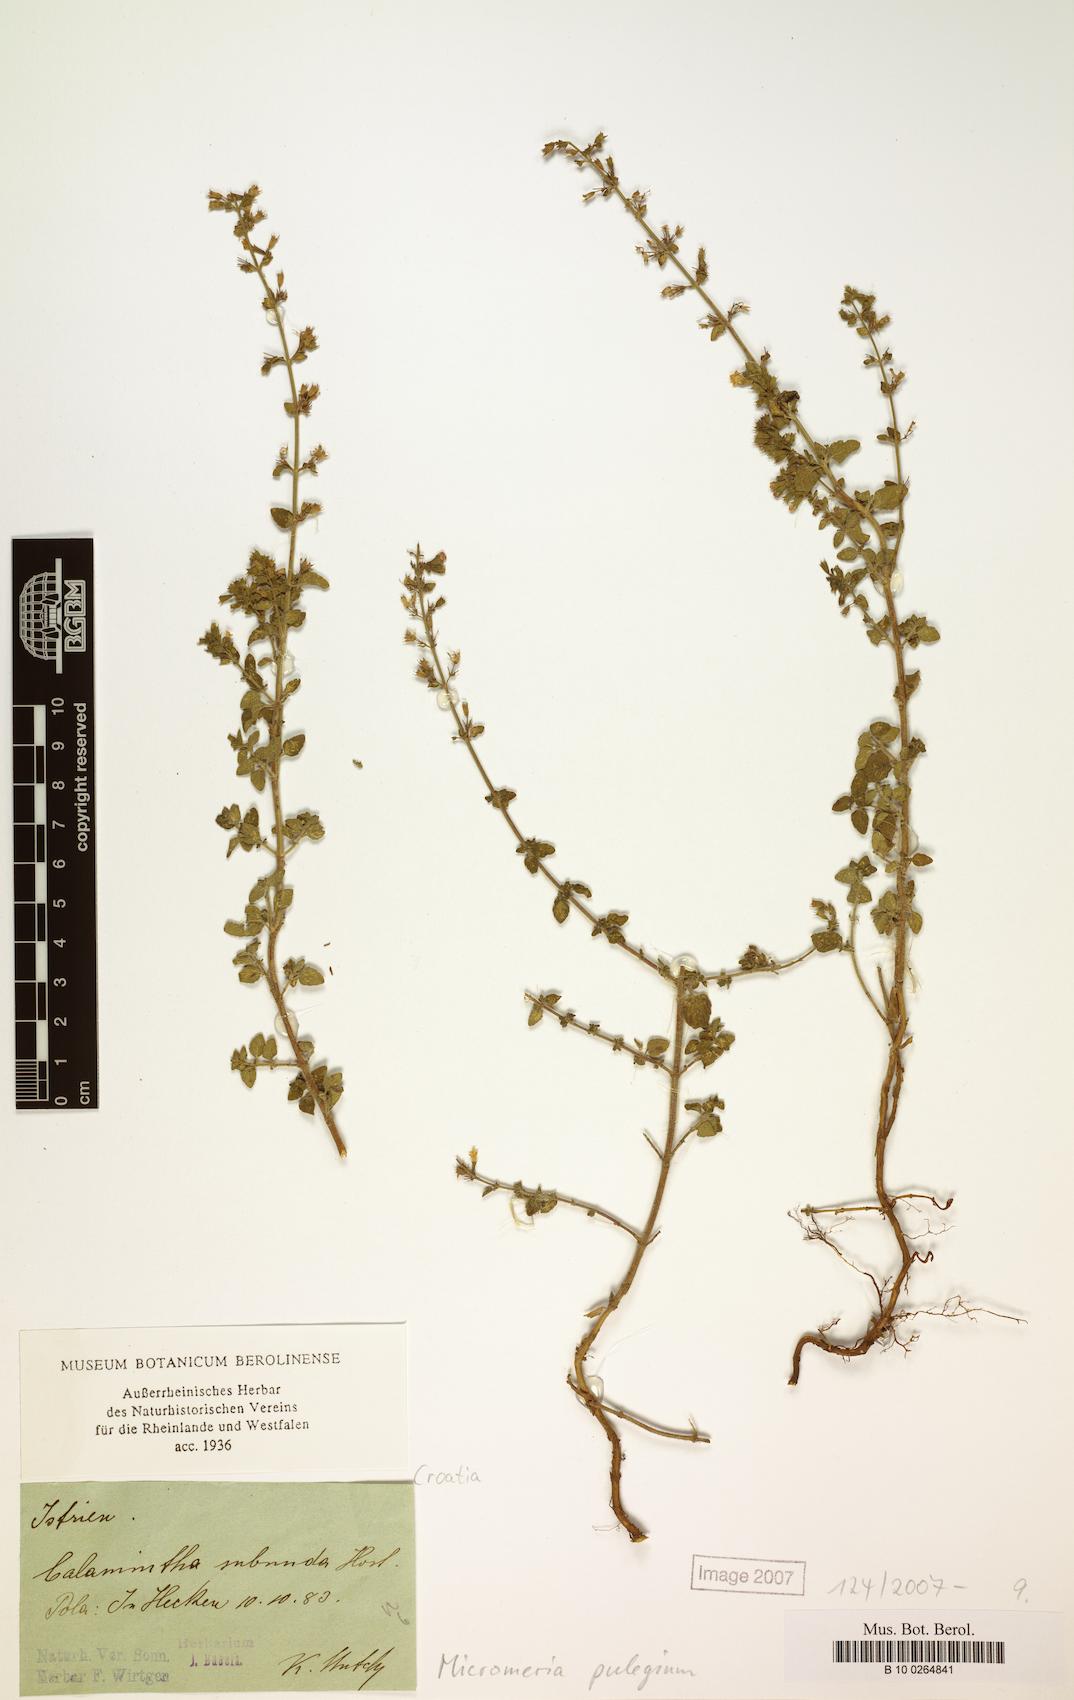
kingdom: Plantae
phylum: Tracheophyta
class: Magnoliopsida
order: Lamiales
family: Lamiaceae
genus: Clinopodium
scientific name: Clinopodium pulegium
